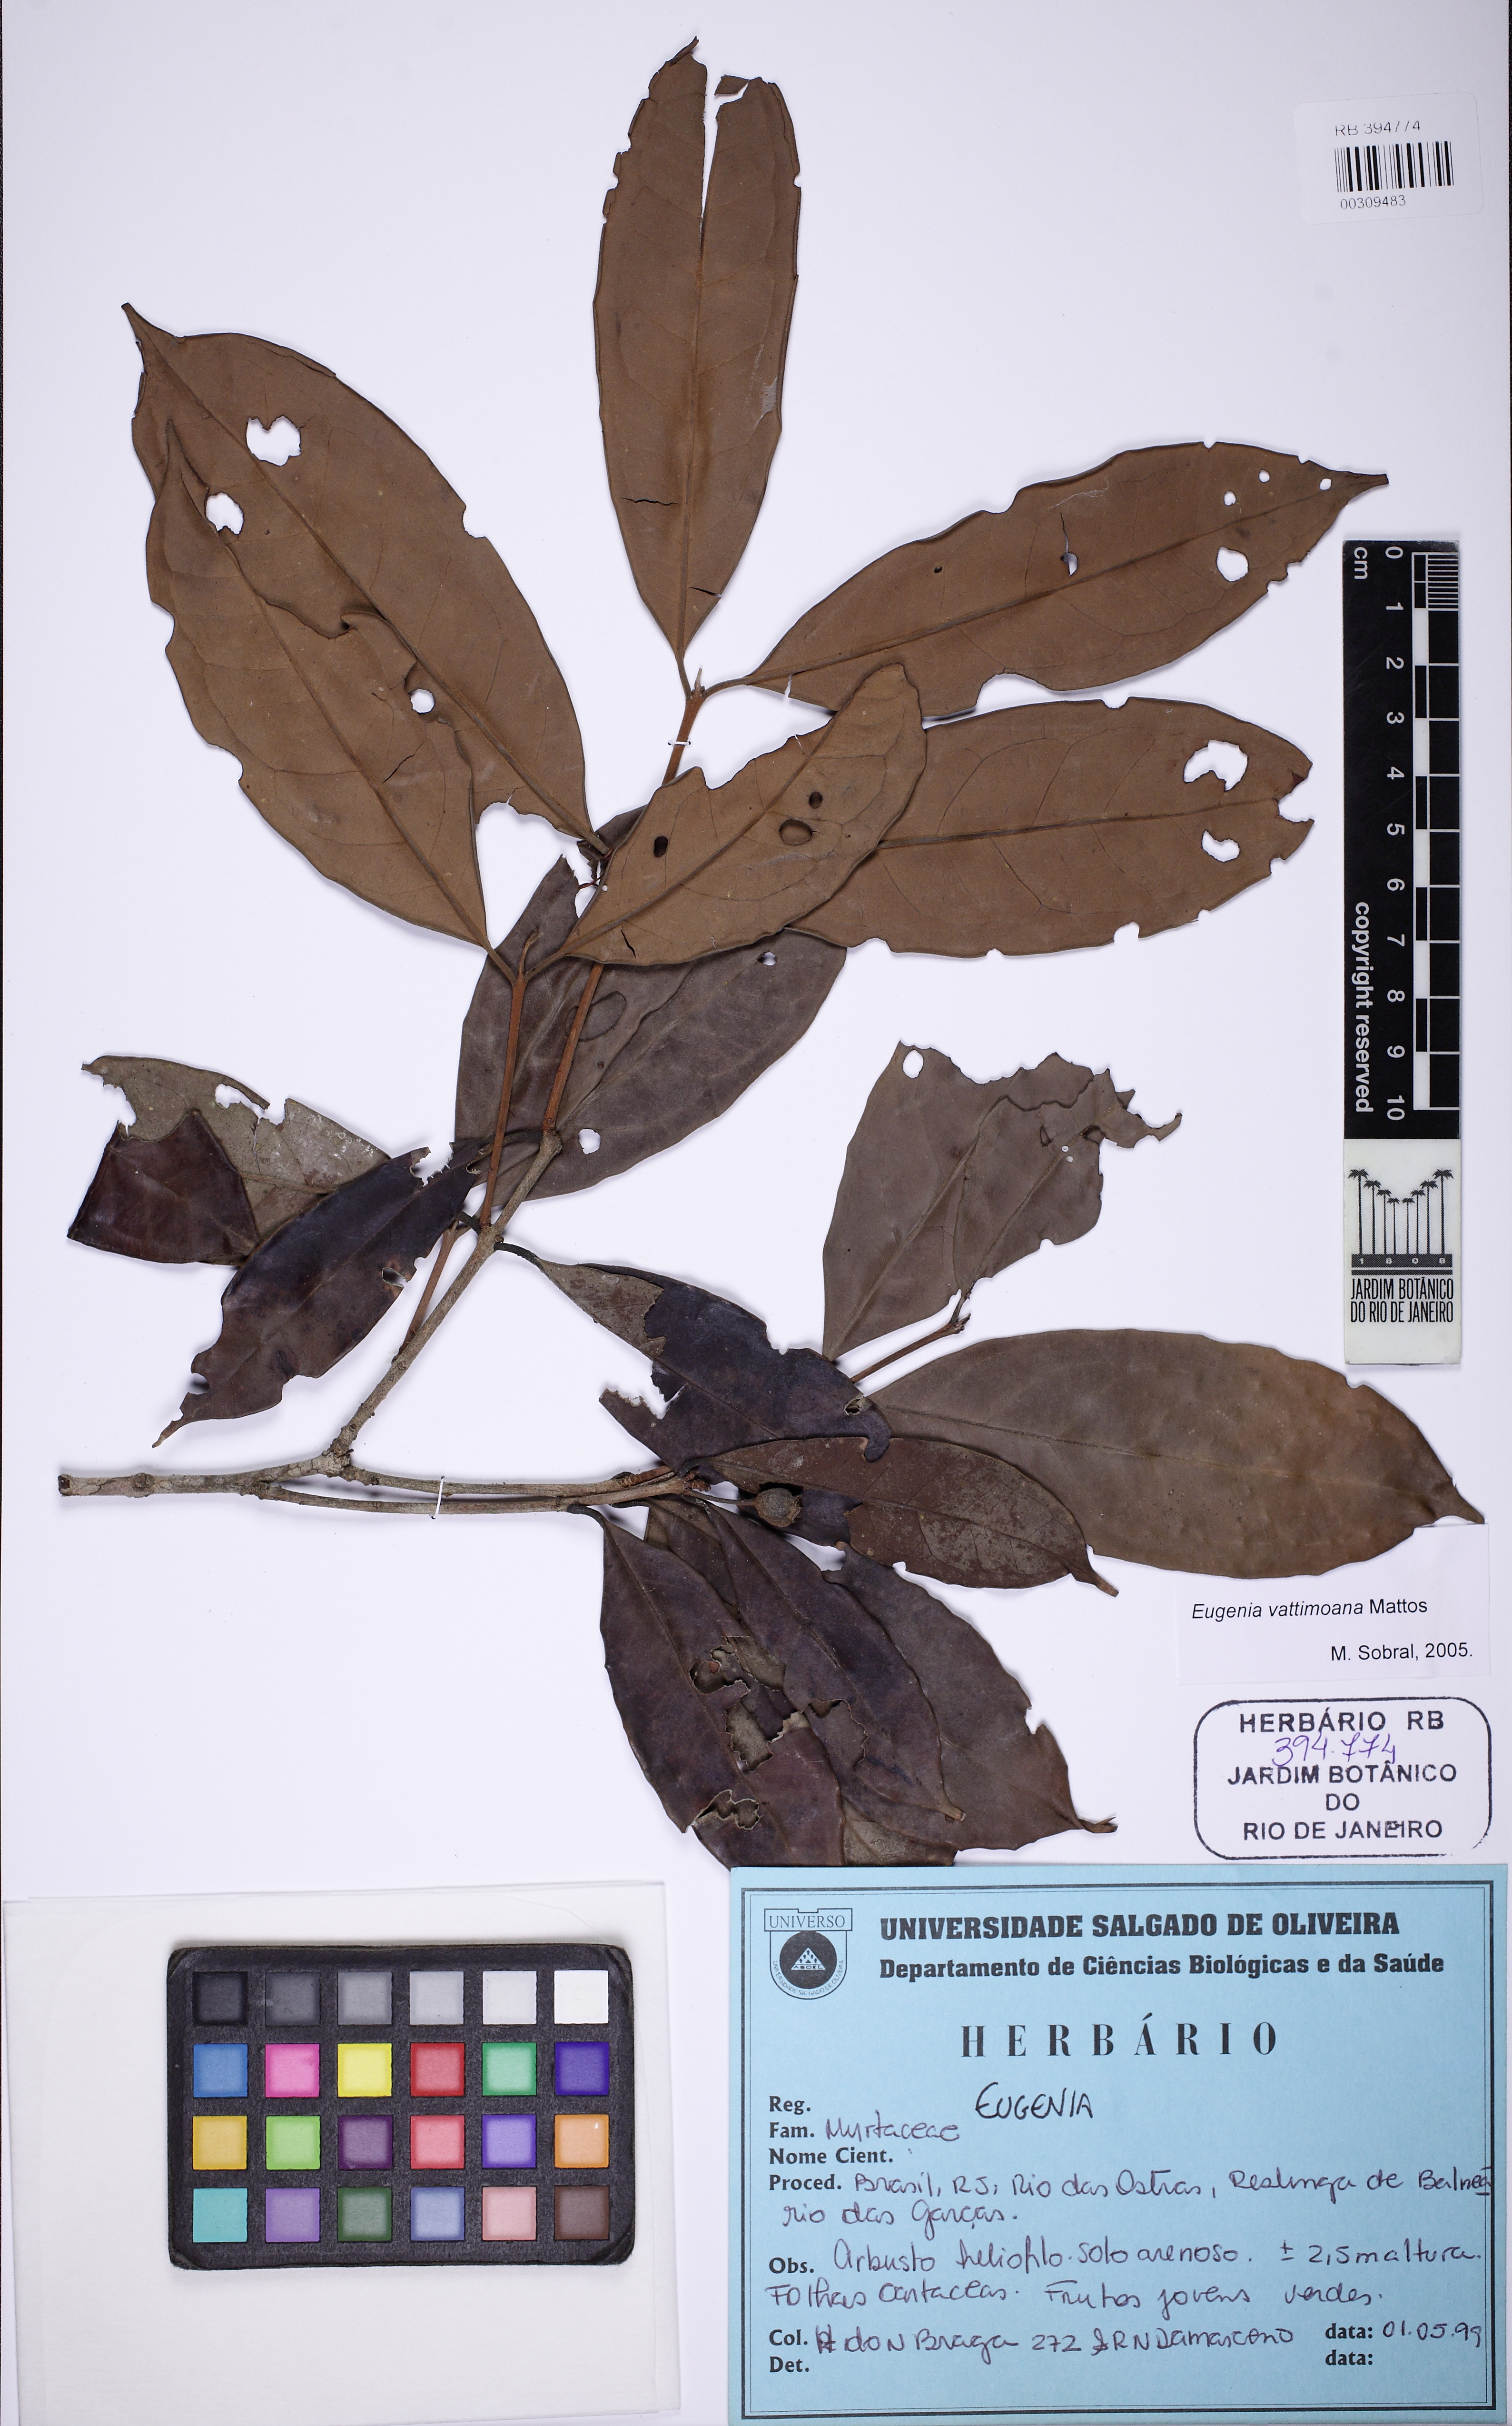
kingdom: Plantae
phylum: Tracheophyta
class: Magnoliopsida
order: Myrtales
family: Myrtaceae
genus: Eugenia
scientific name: Eugenia brevistyla
